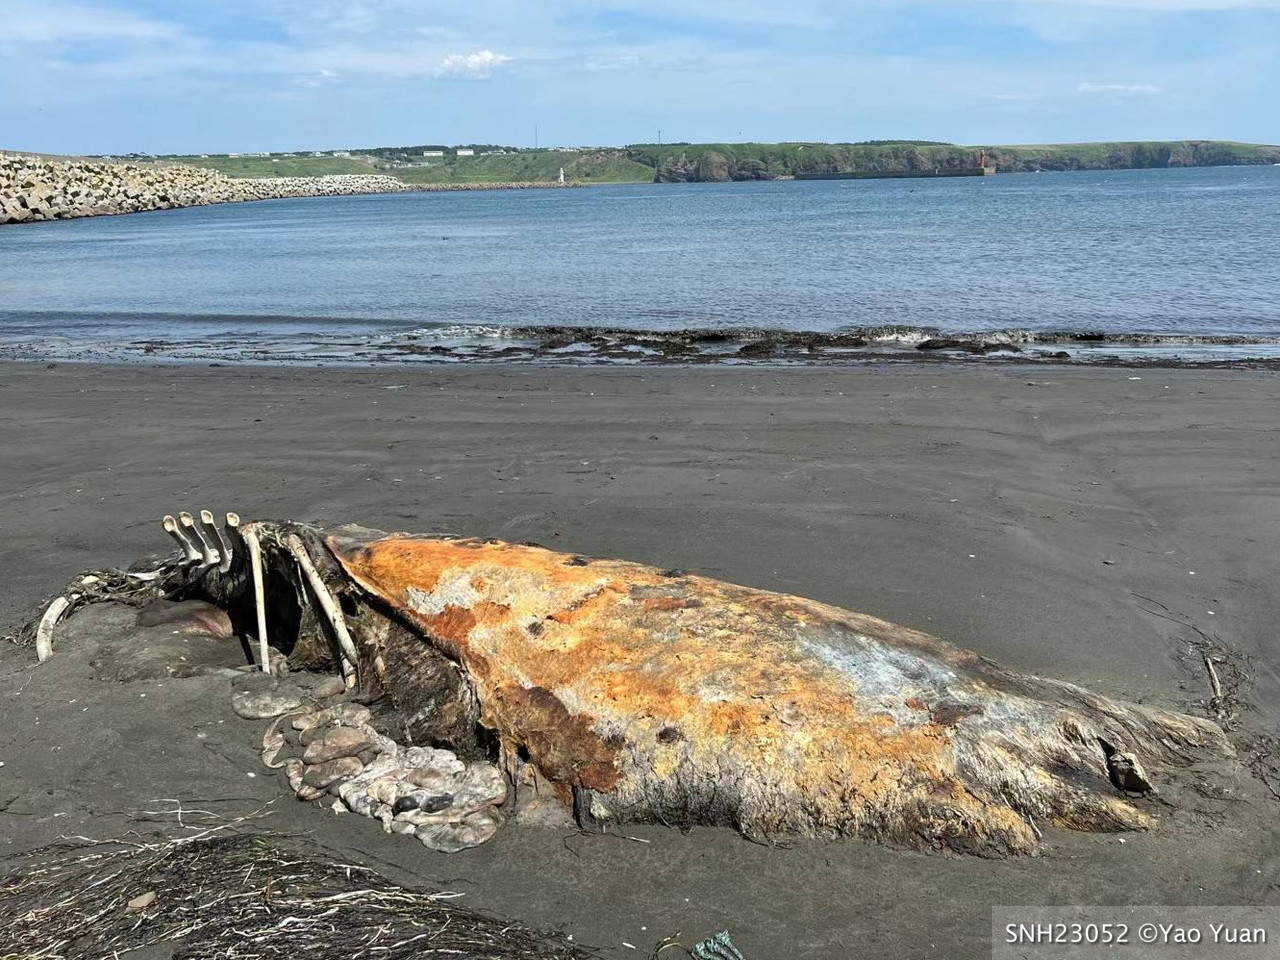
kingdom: Animalia
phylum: Chordata
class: Mammalia
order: Cetacea
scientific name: Cetacea
